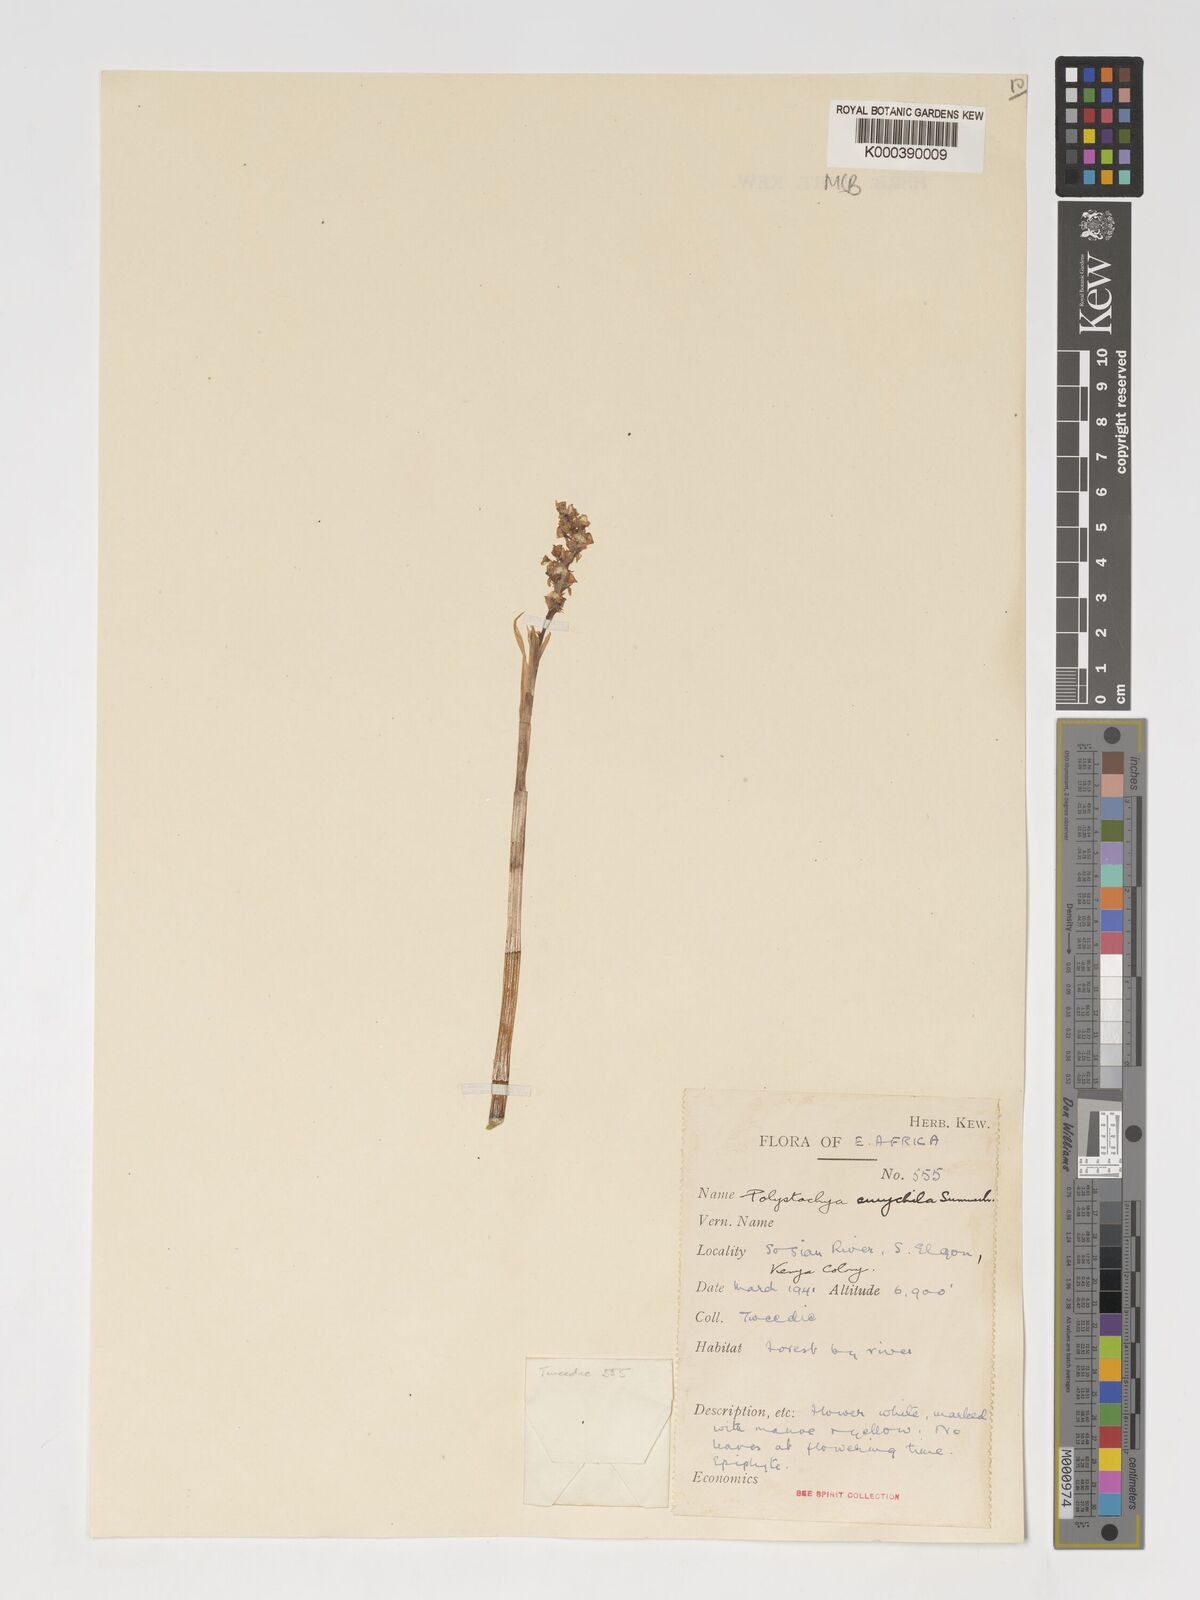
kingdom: Plantae
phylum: Tracheophyta
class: Liliopsida
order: Asparagales
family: Orchidaceae
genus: Polystachya
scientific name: Polystachya eurychila
